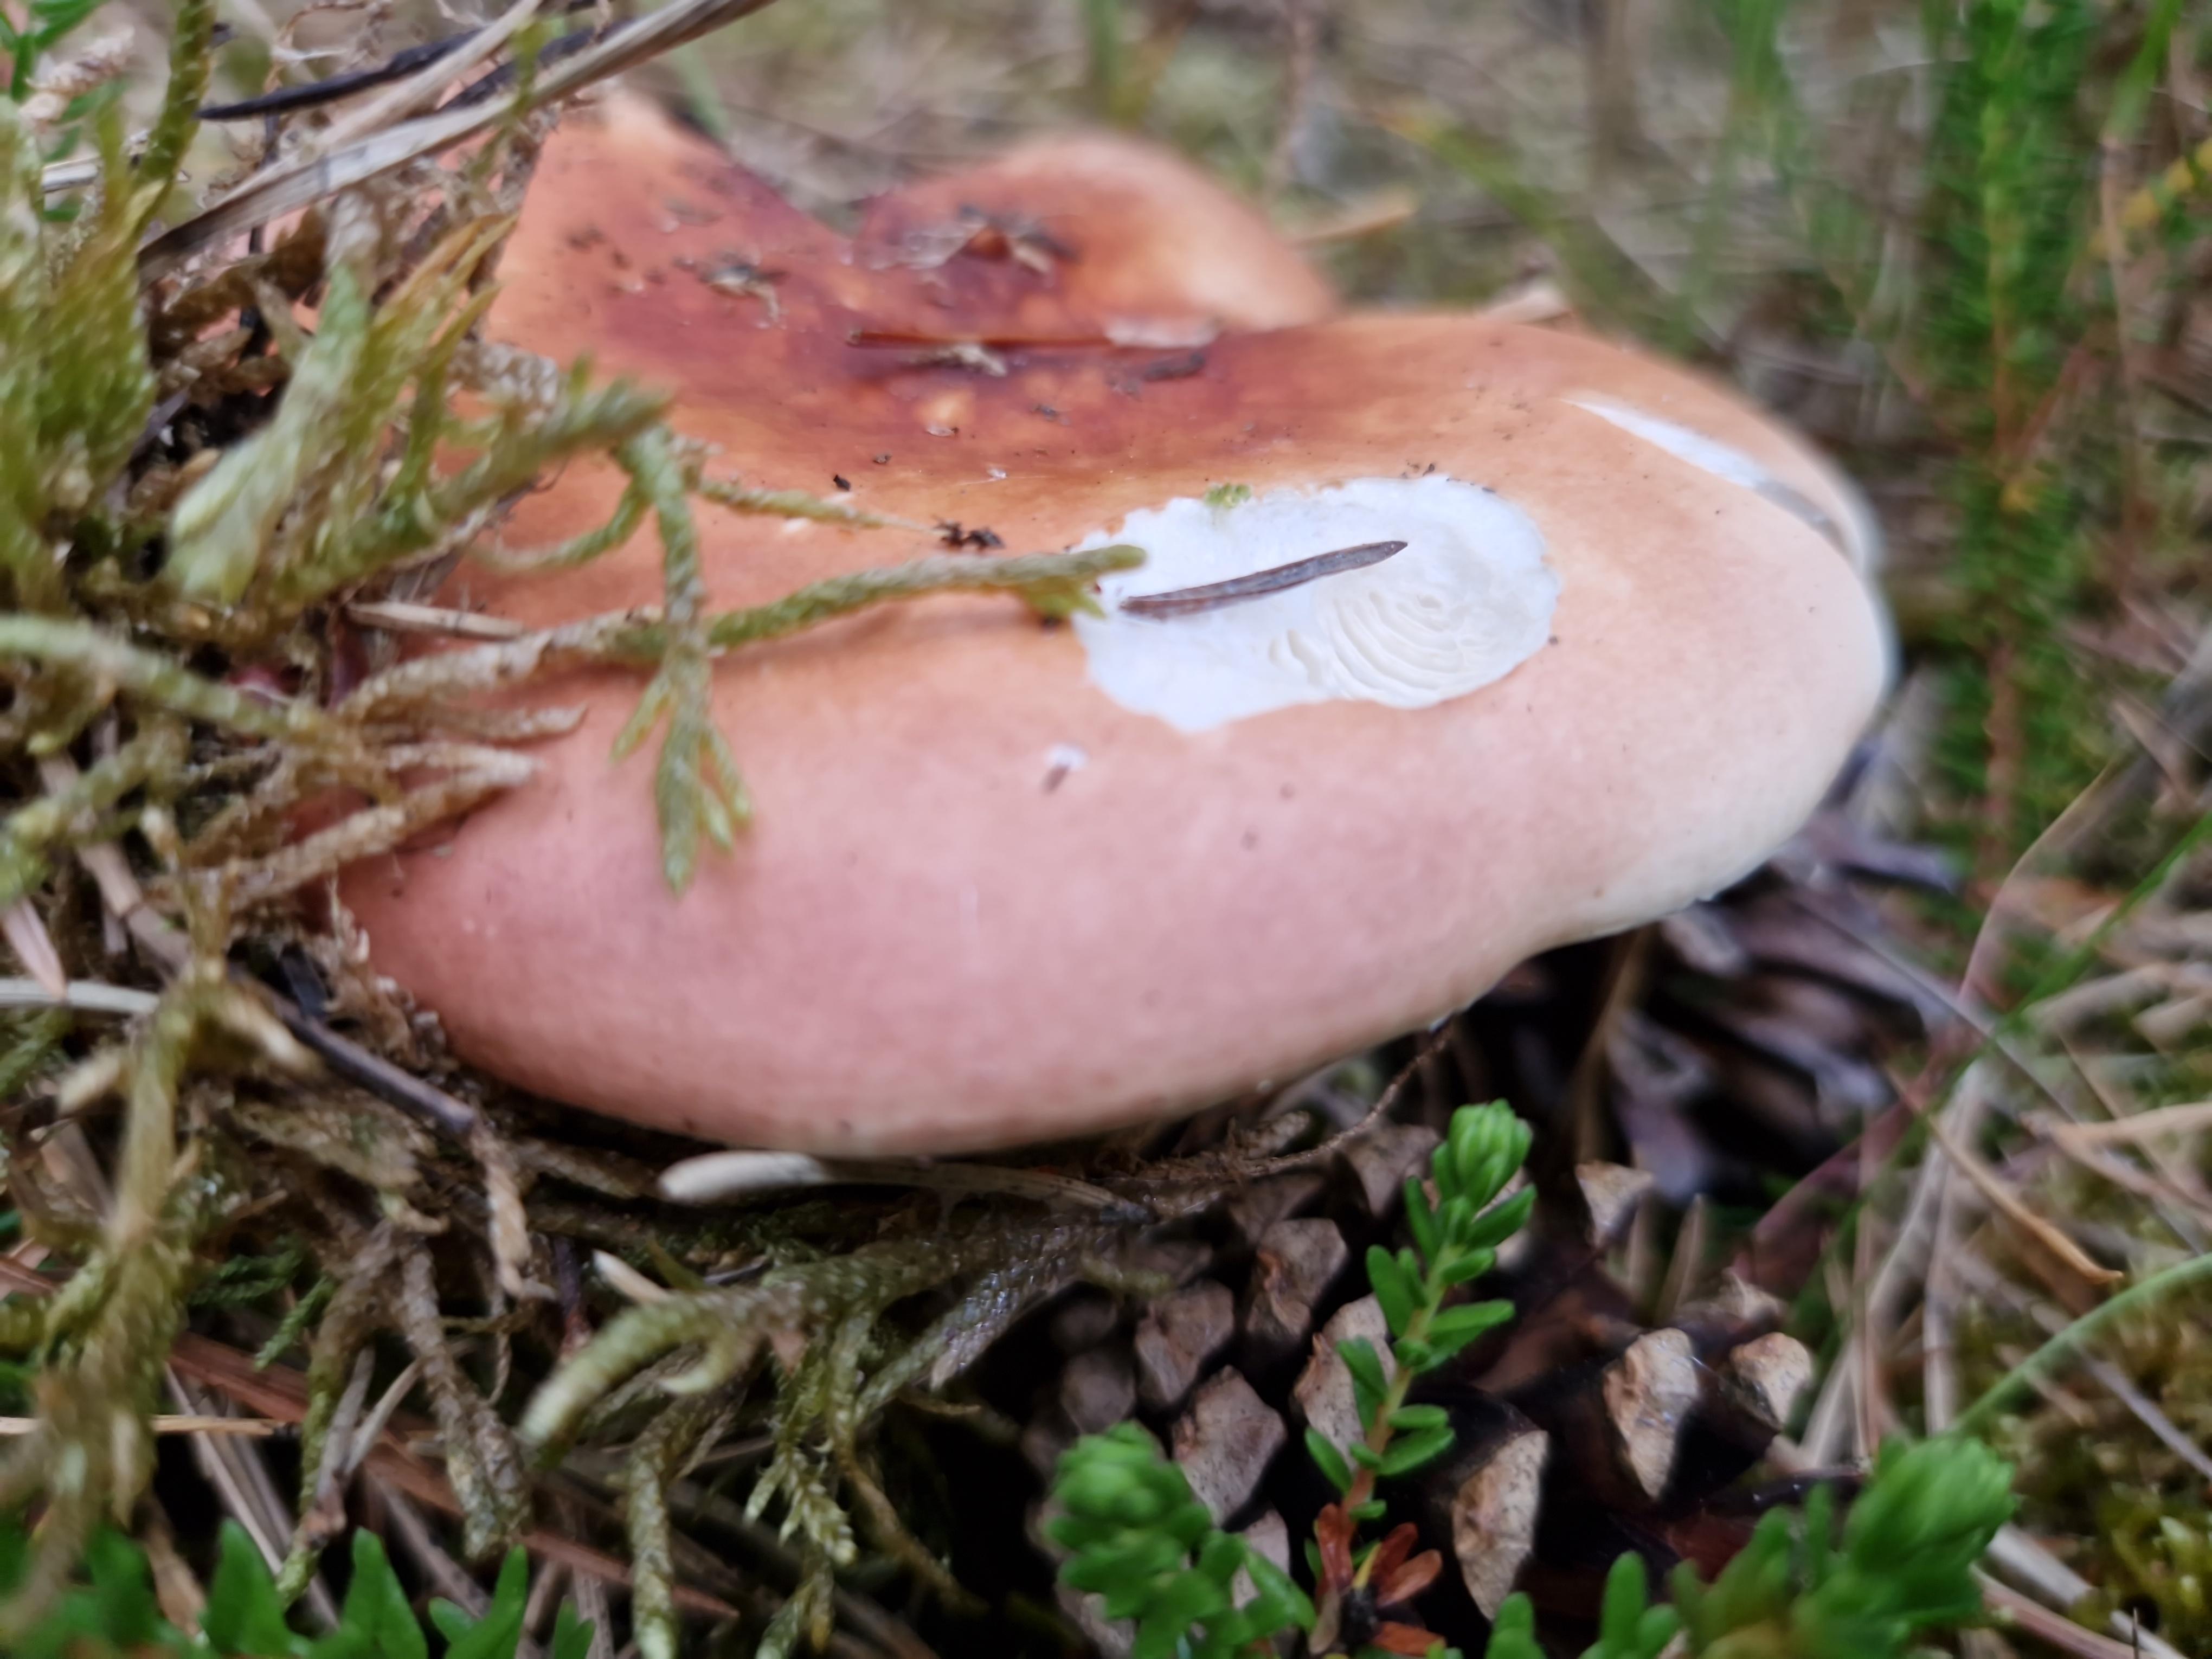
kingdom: Fungi
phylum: Basidiomycota
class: Agaricomycetes
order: Russulales
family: Russulaceae
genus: Russula
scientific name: Russula vesca
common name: spiselig skørhat
